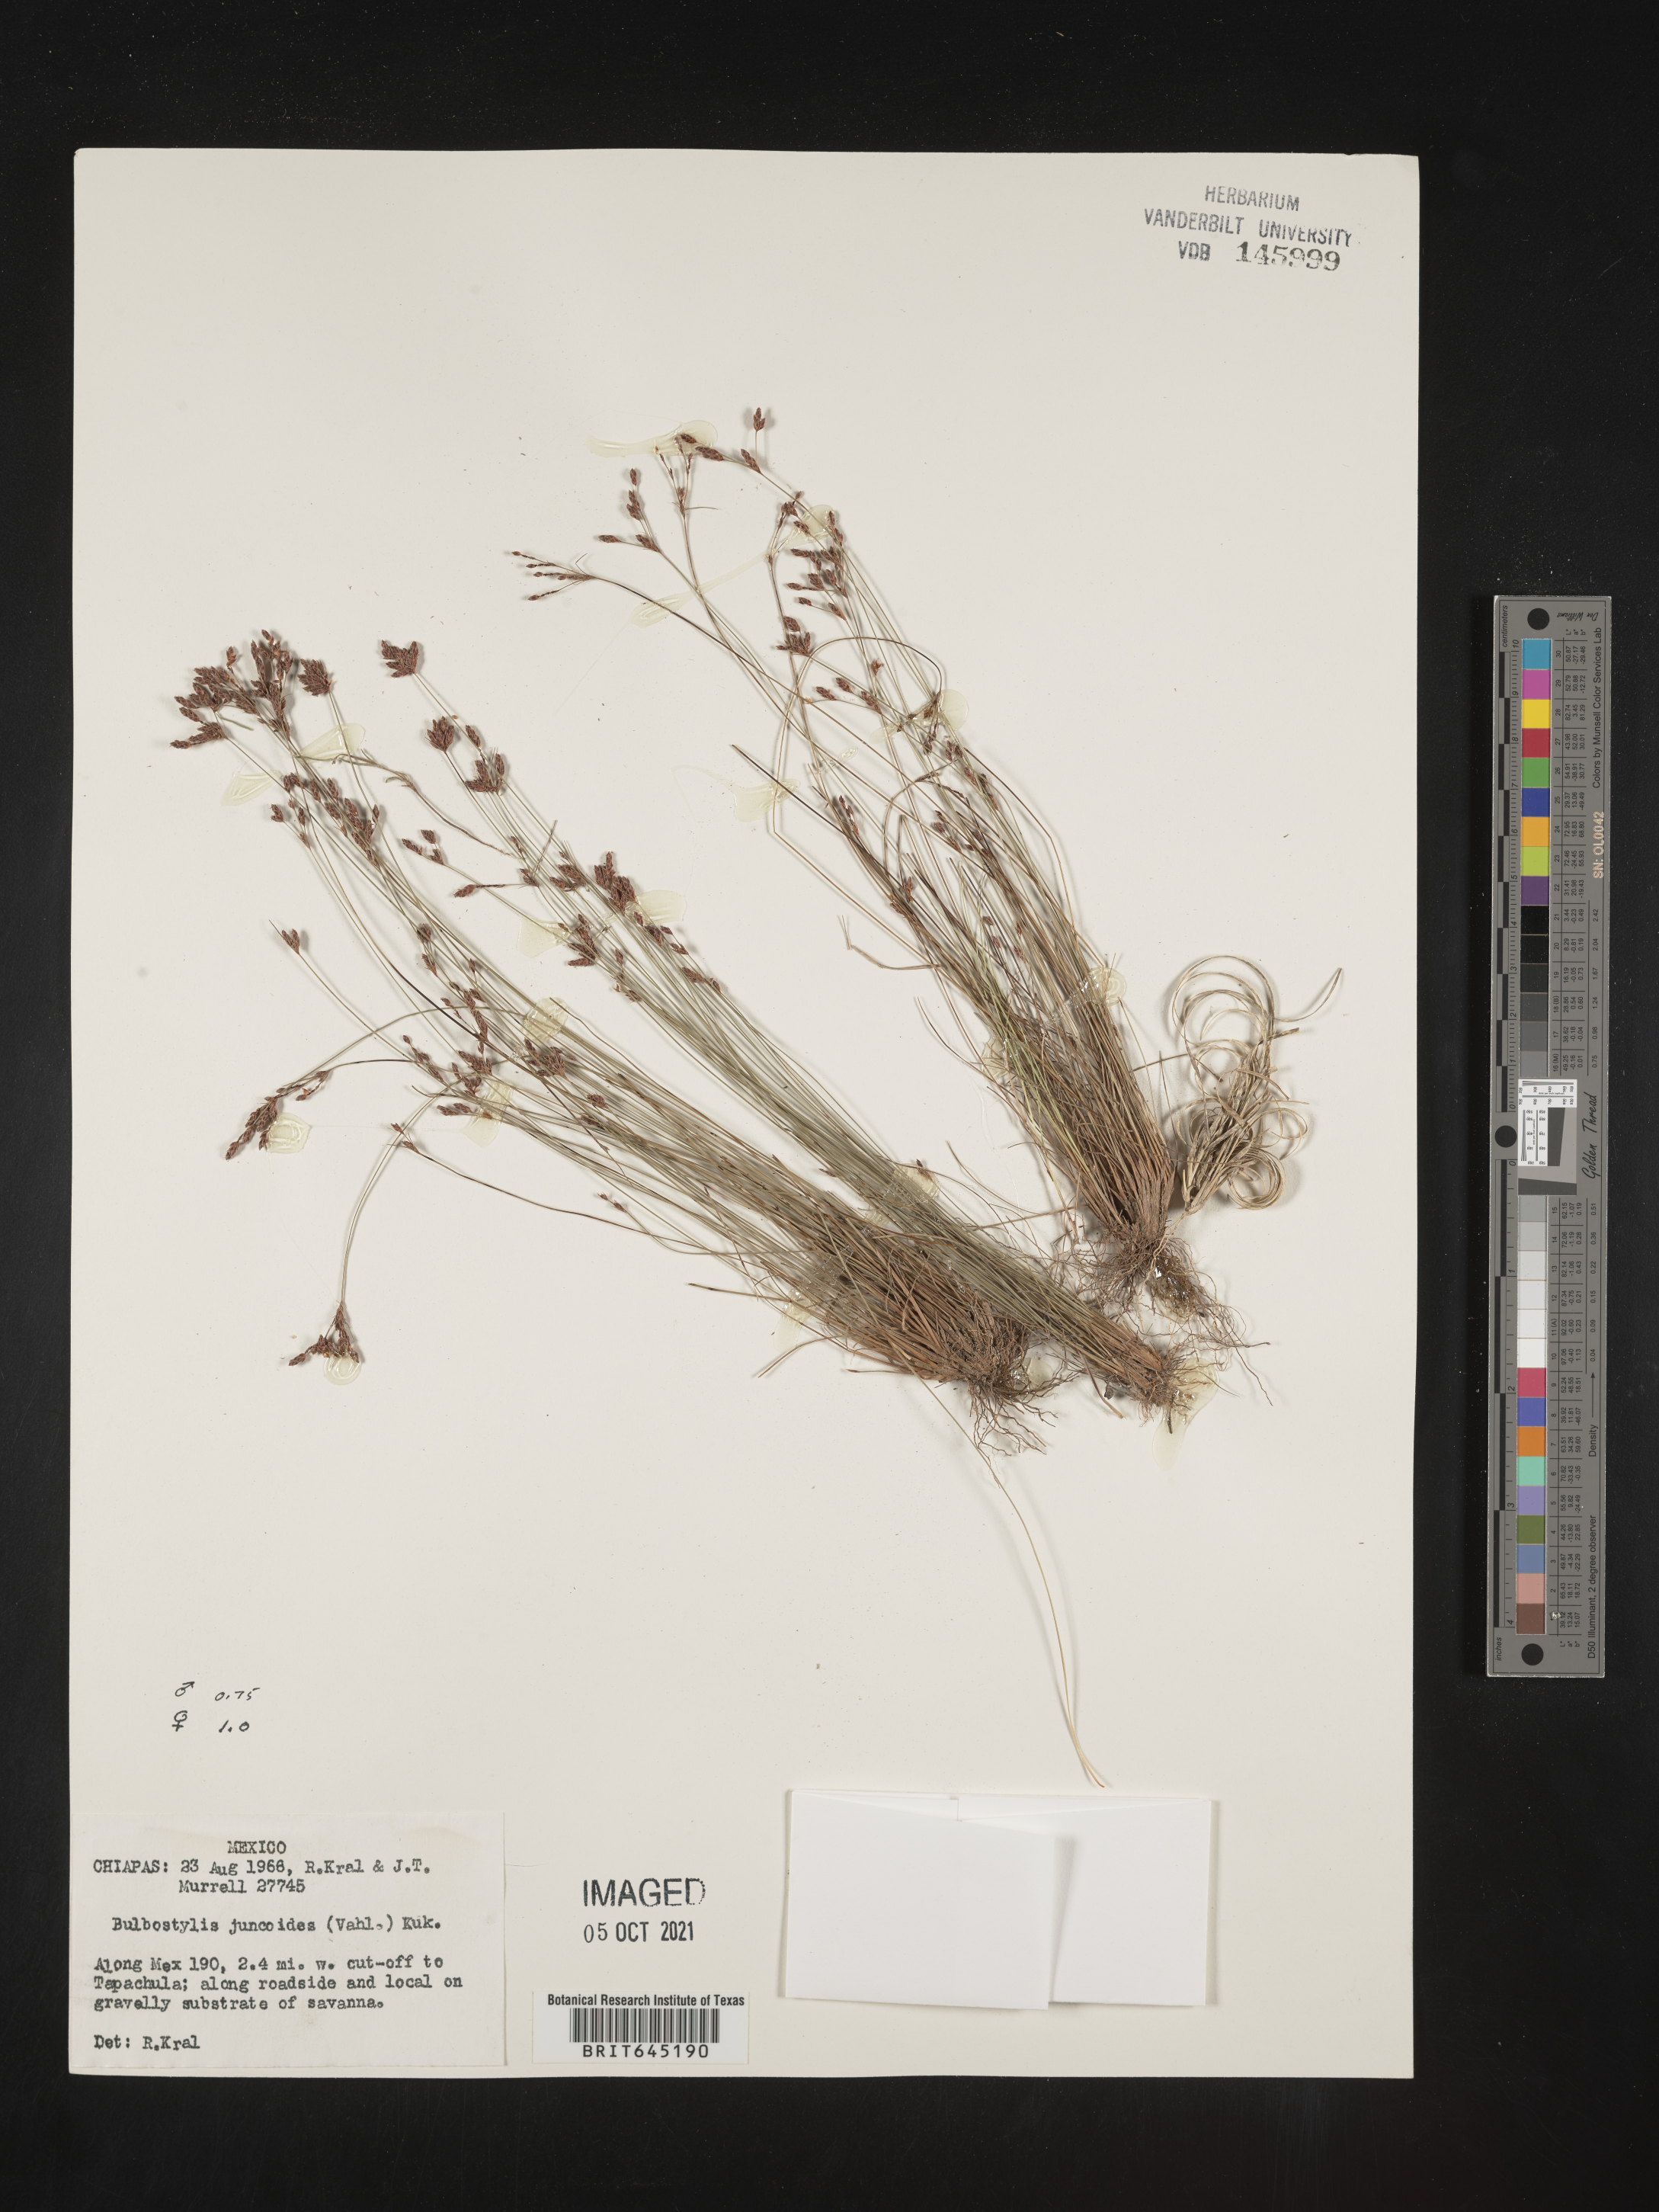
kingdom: Plantae
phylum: Tracheophyta
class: Liliopsida
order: Poales
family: Cyperaceae
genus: Bulbostylis
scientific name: Bulbostylis juncoides
